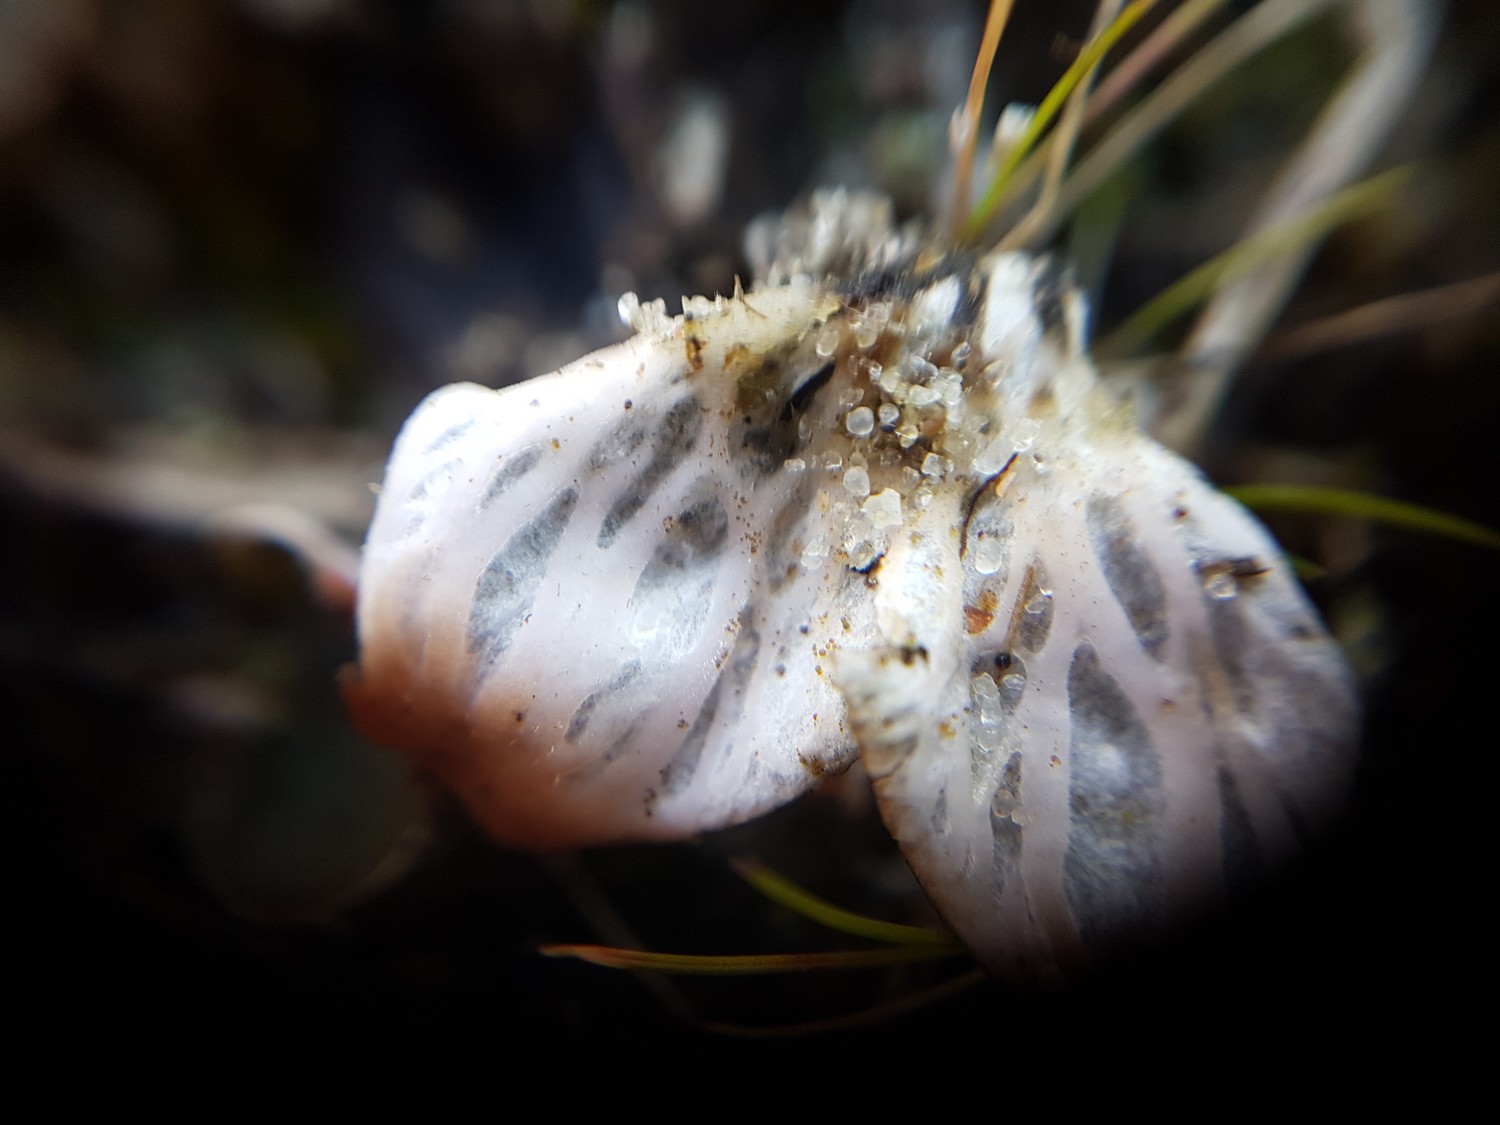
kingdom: Fungi
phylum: Ascomycota
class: Lecanoromycetes
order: Peltigerales
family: Peltigeraceae
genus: Peltigera
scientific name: Peltigera didactyla
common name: liden skjoldlav
